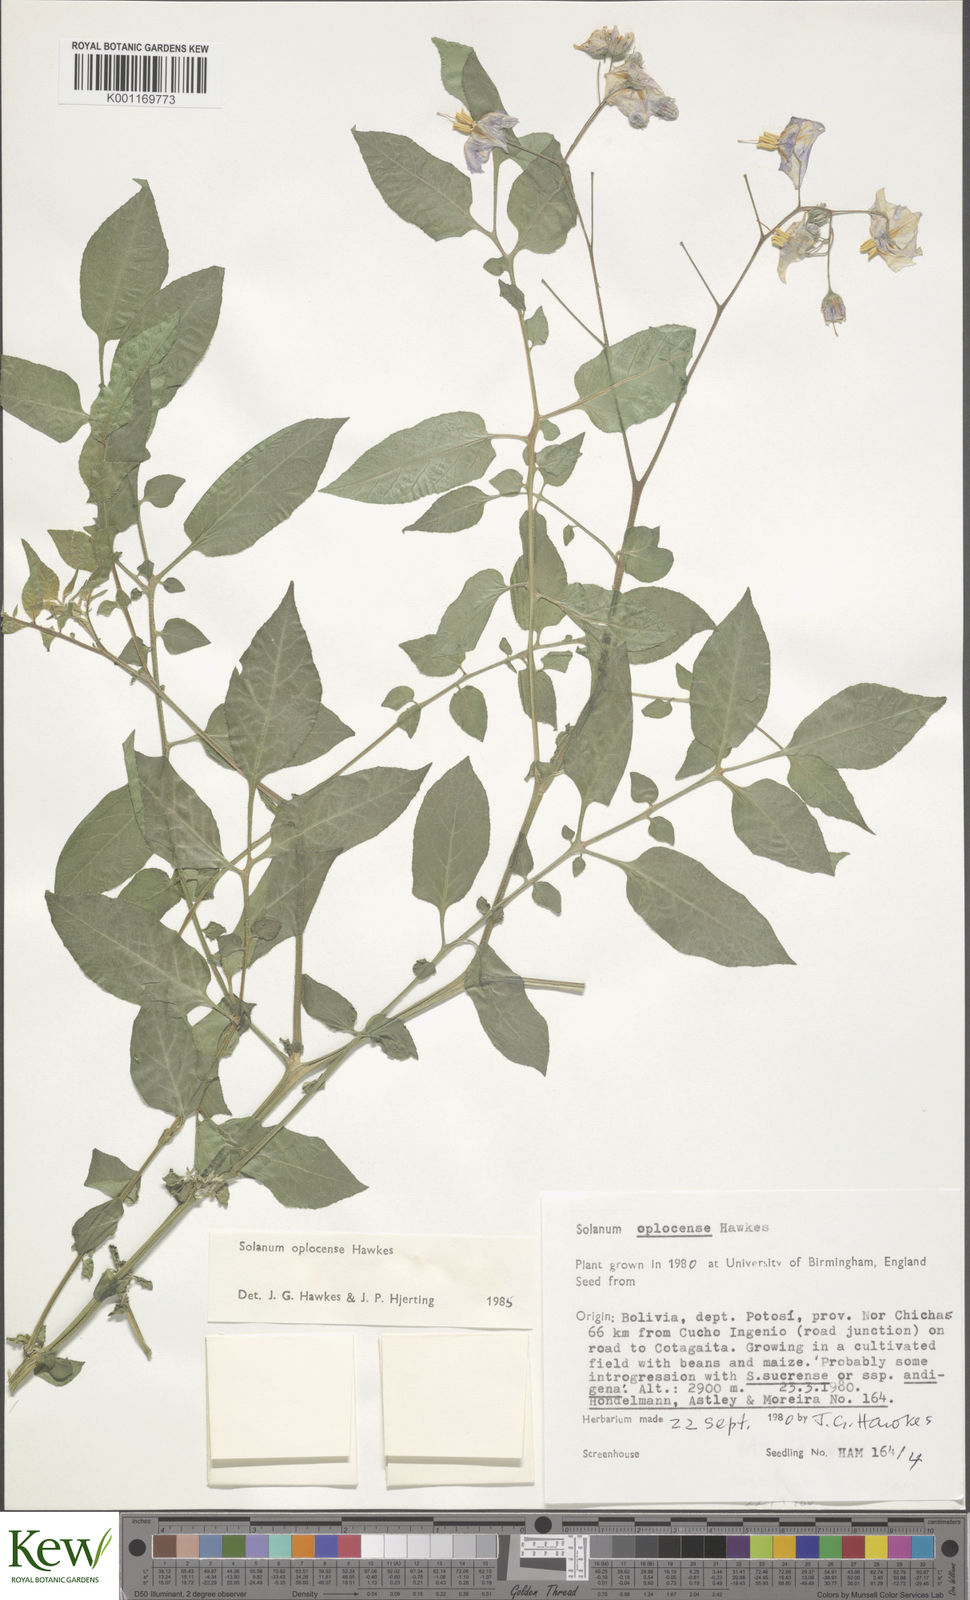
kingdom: Plantae
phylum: Tracheophyta
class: Magnoliopsida
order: Solanales
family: Solanaceae
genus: Solanum
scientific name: Solanum brevicaule
